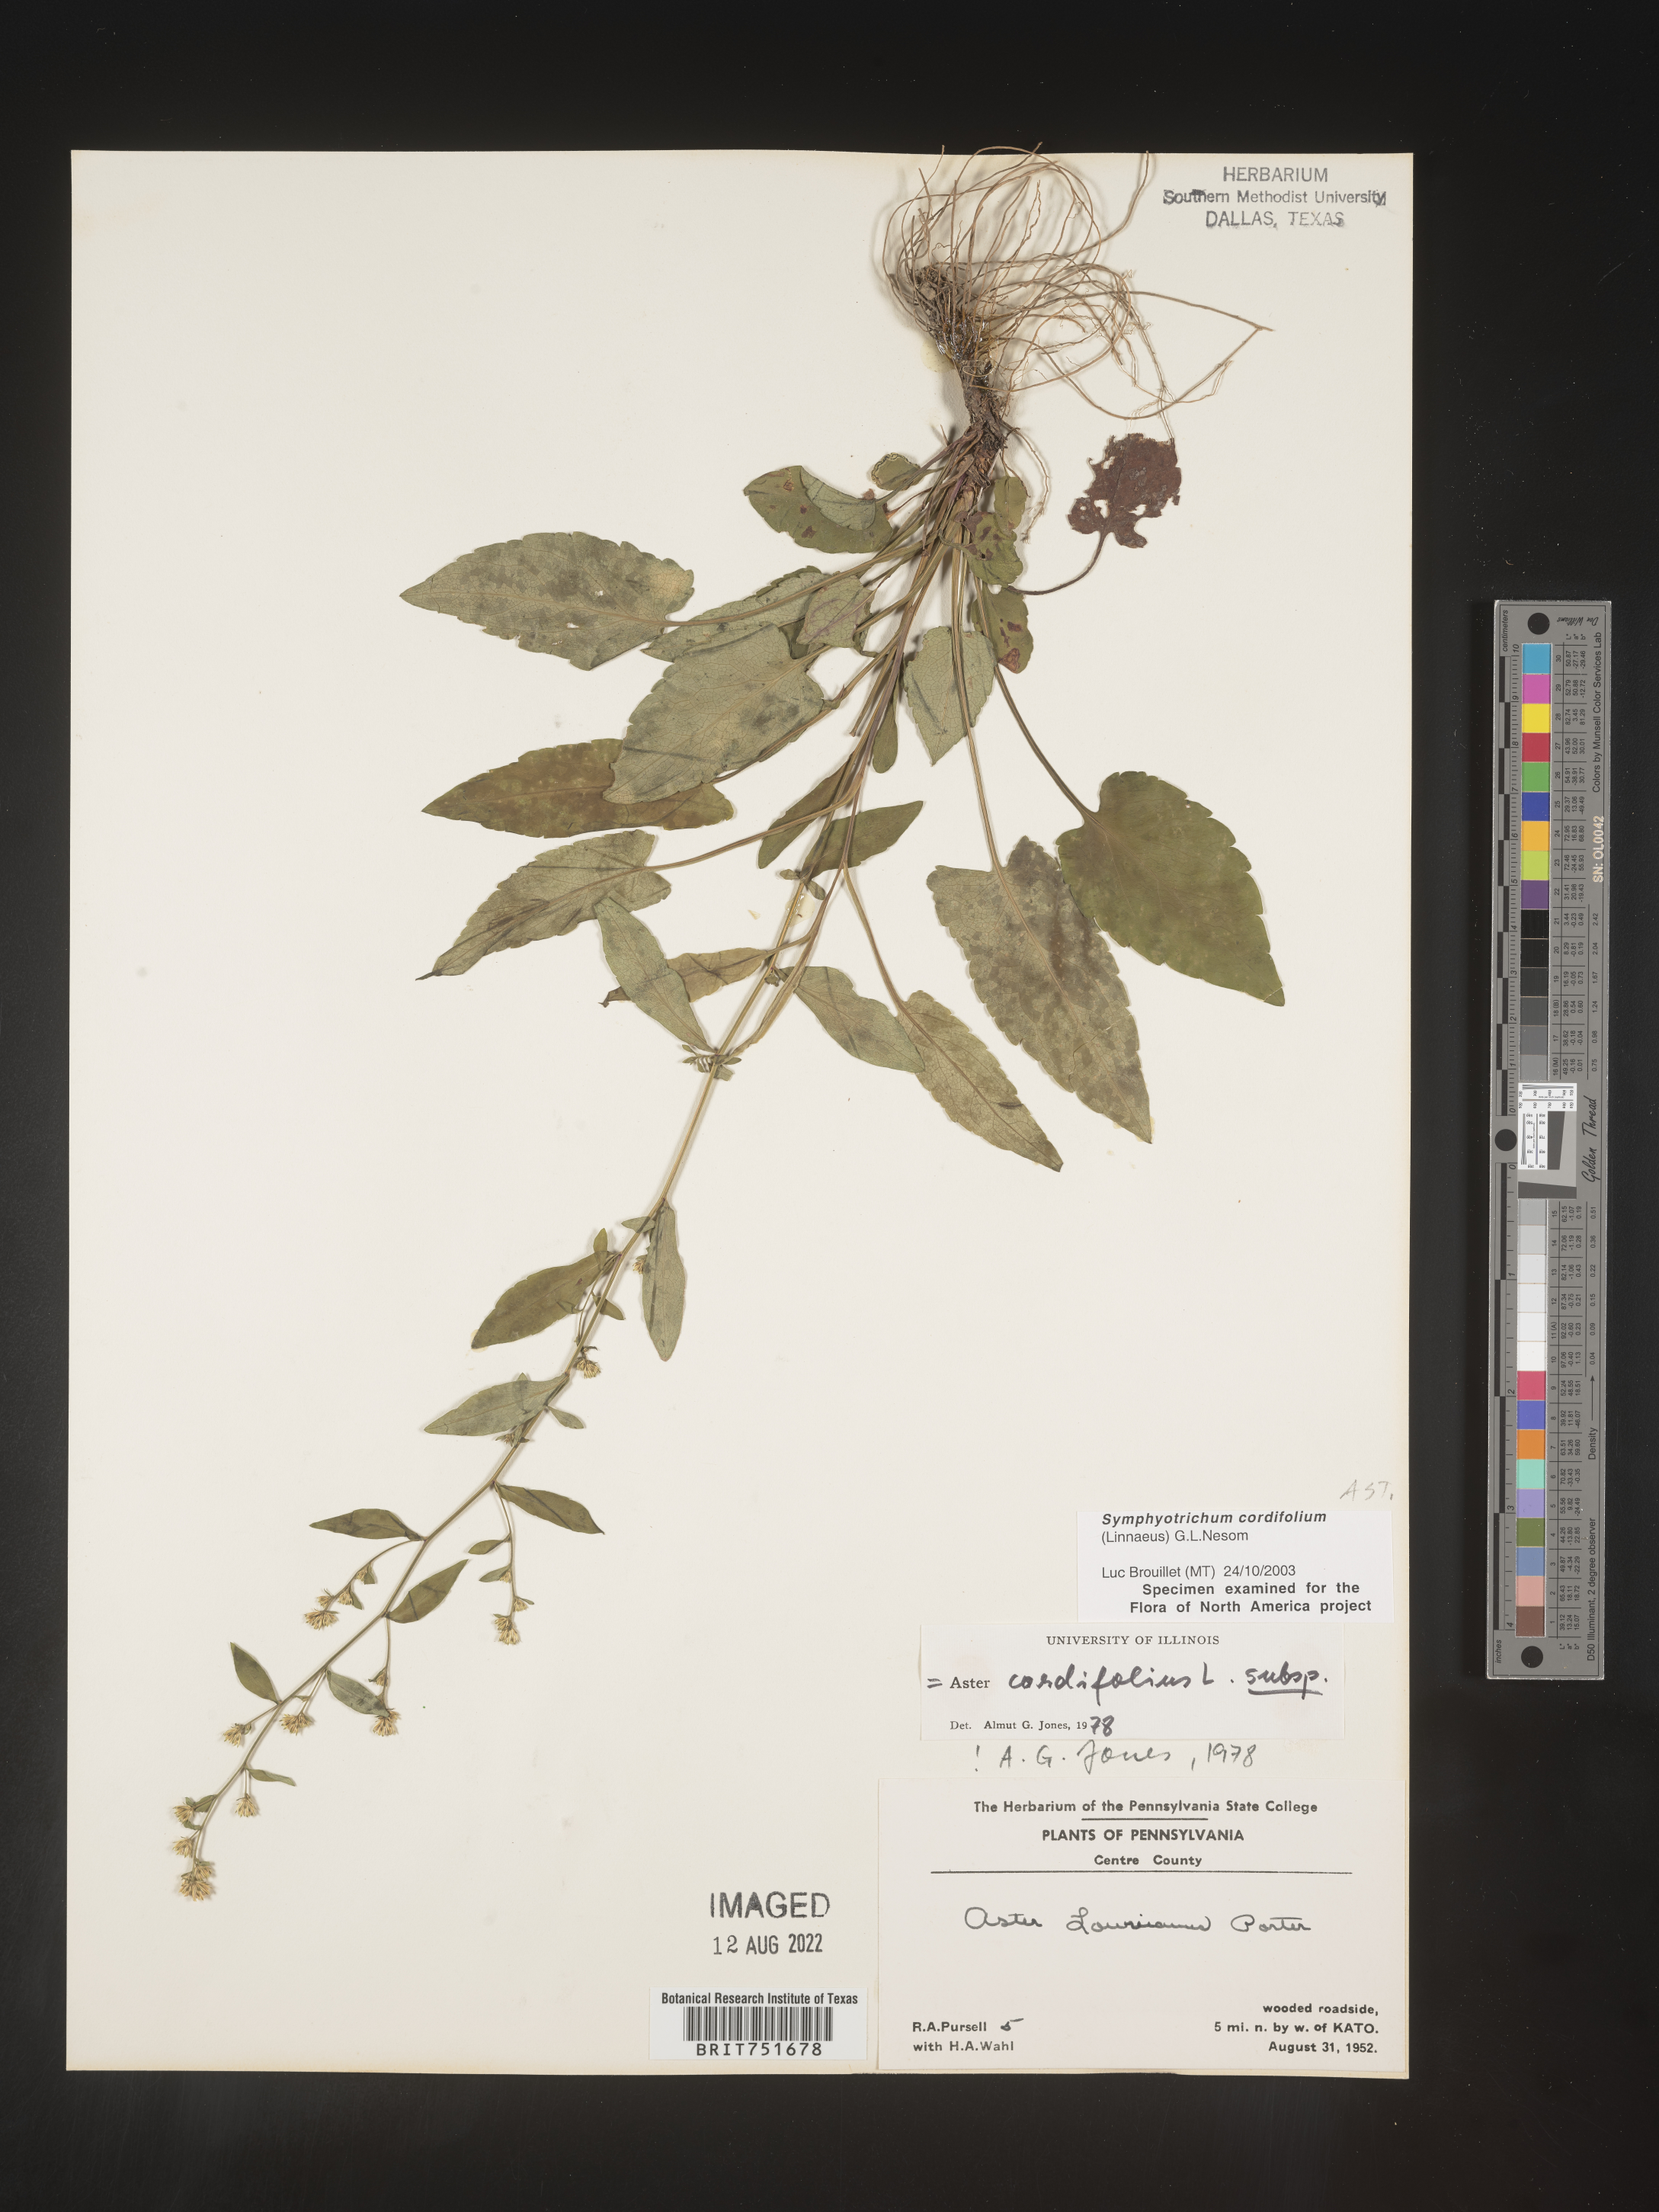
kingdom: Plantae
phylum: Tracheophyta
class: Magnoliopsida
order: Asterales
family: Asteraceae
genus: Symphyotrichum
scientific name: Symphyotrichum cordifolium
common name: Beeweed
